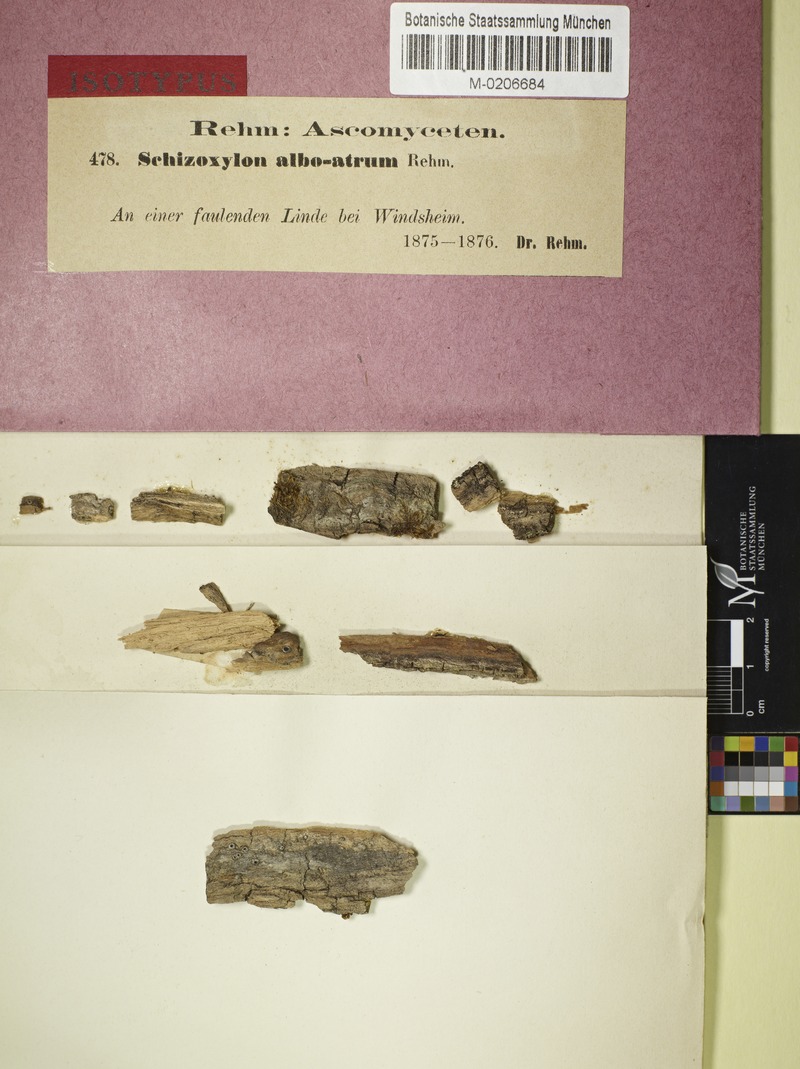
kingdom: Fungi
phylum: Ascomycota
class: Lecanoromycetes
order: Ostropales
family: Stictidaceae
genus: Schizoxylon
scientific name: Schizoxylon alboatrum
